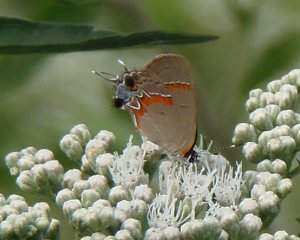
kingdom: Animalia
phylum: Arthropoda
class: Insecta
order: Lepidoptera
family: Lycaenidae
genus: Calycopis
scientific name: Calycopis cecrops
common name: Red-banded Hairstreak
